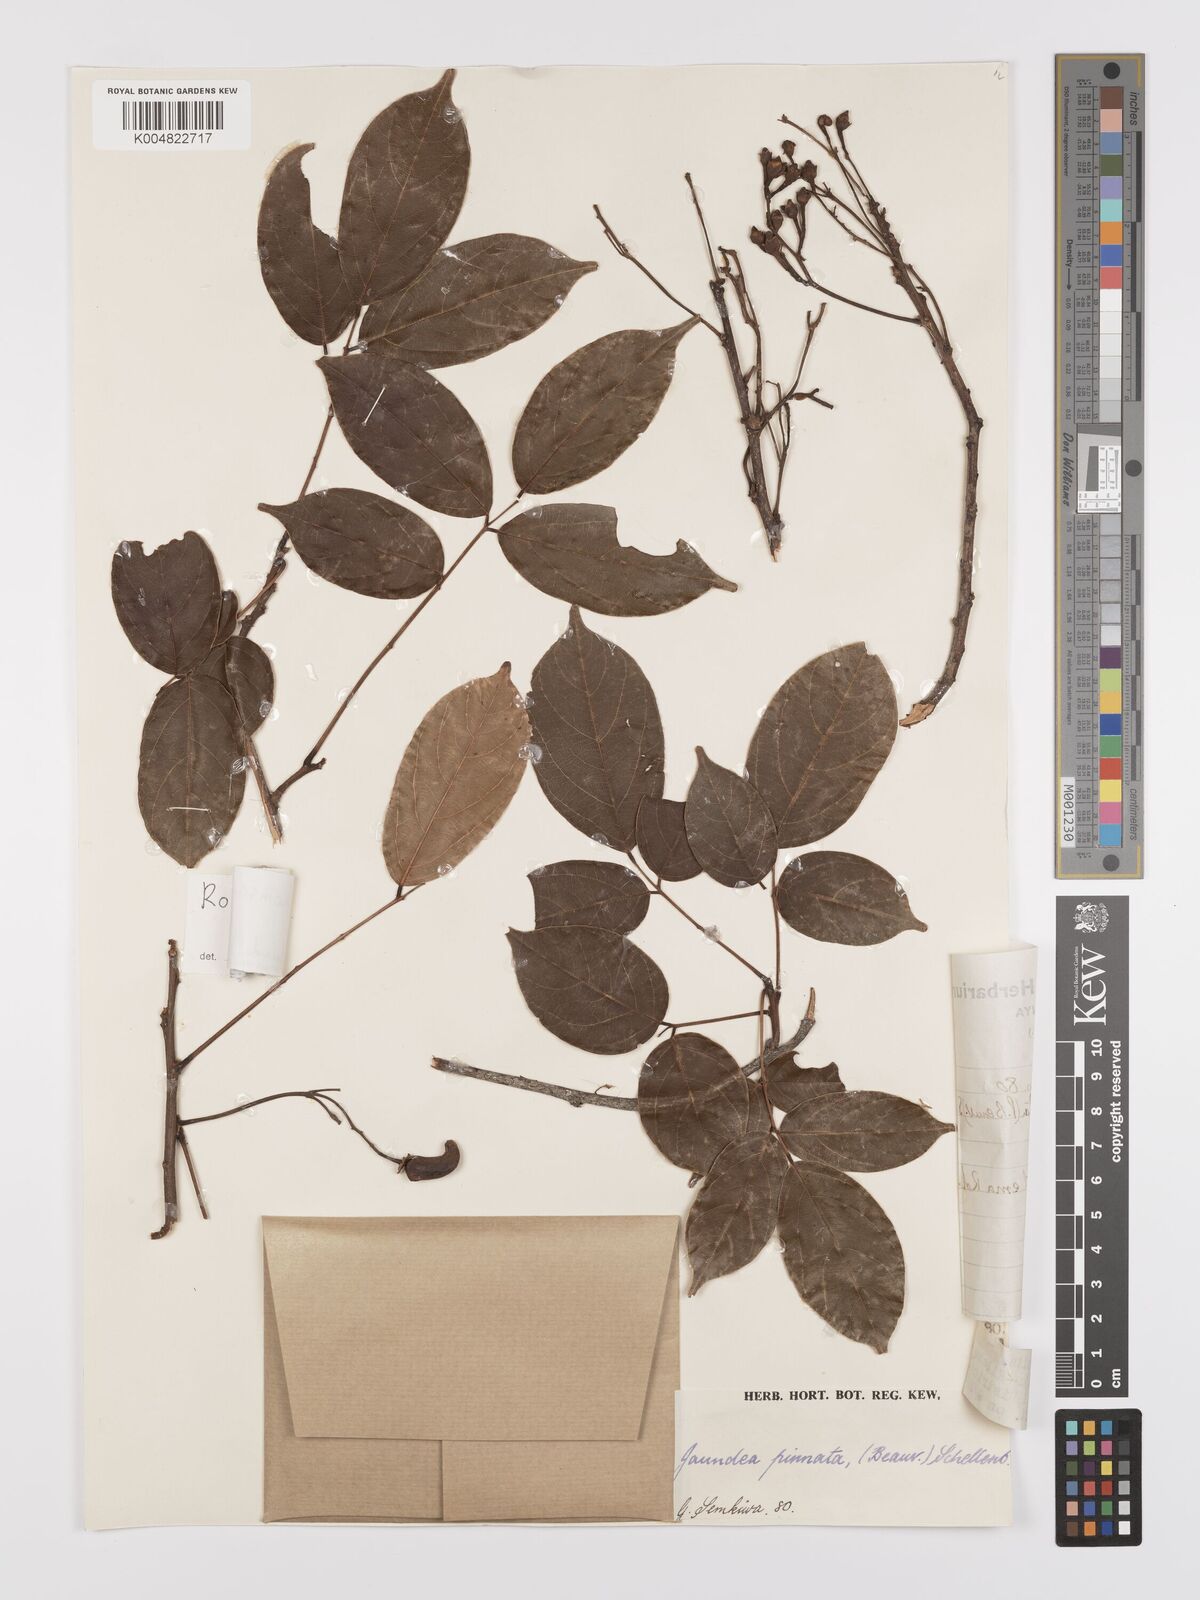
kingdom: Plantae
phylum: Tracheophyta
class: Magnoliopsida
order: Oxalidales
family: Connaraceae
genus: Rourea
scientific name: Rourea pinnata
